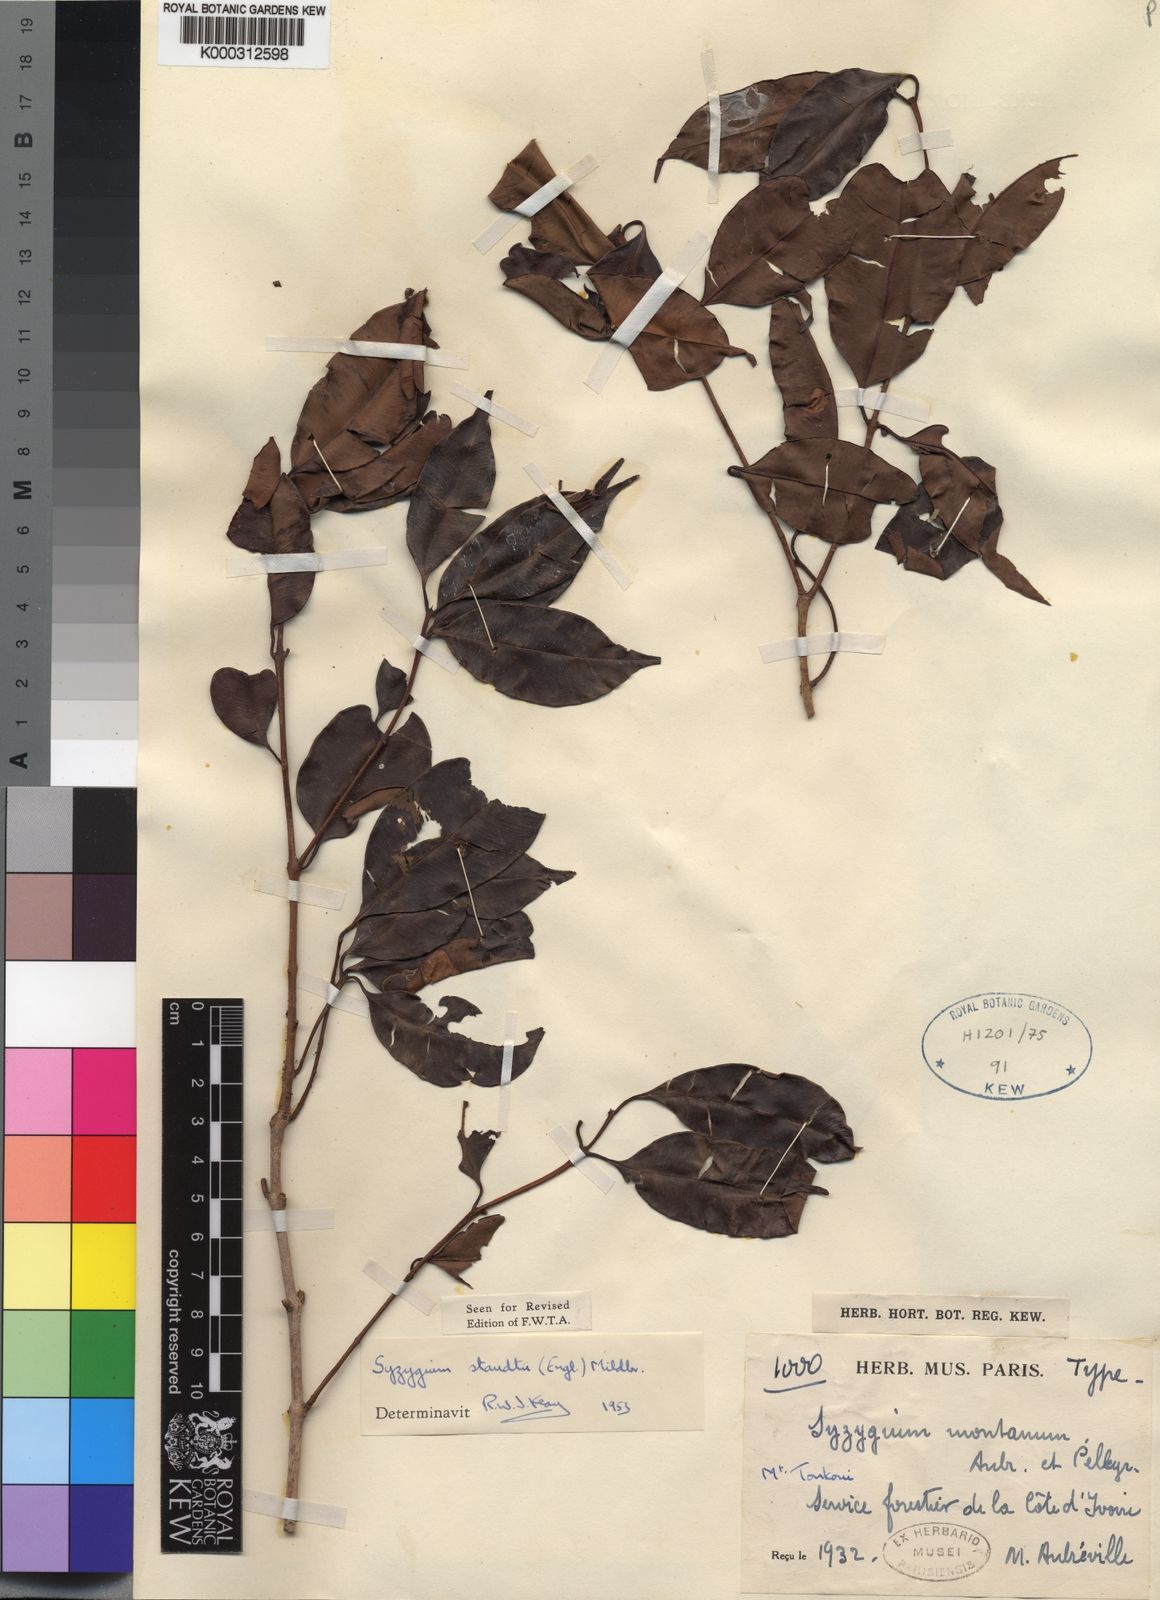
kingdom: Plantae
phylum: Tracheophyta
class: Magnoliopsida
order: Myrtales
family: Myrtaceae
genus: Syzygium
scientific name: Syzygium staudtii
